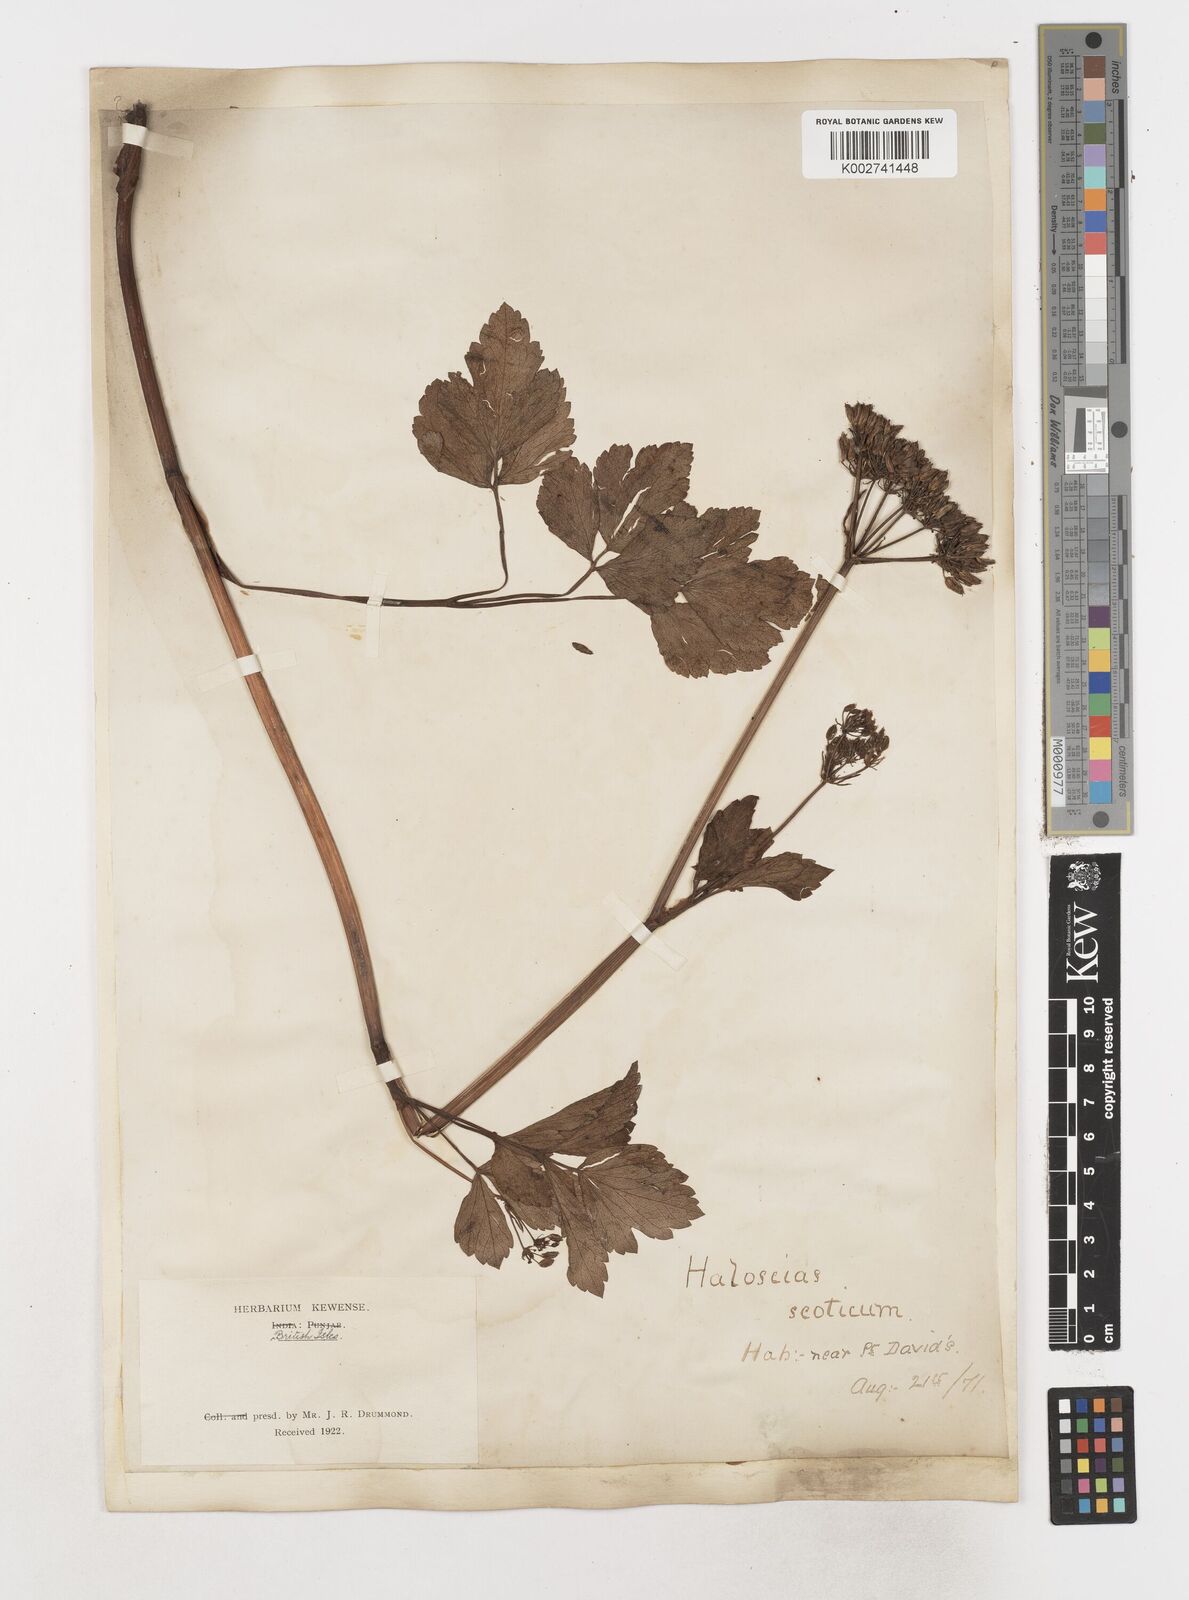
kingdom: Plantae
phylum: Tracheophyta
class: Magnoliopsida
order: Apiales
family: Apiaceae
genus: Ligusticum
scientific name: Ligusticum scothicum
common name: Beach lovage
